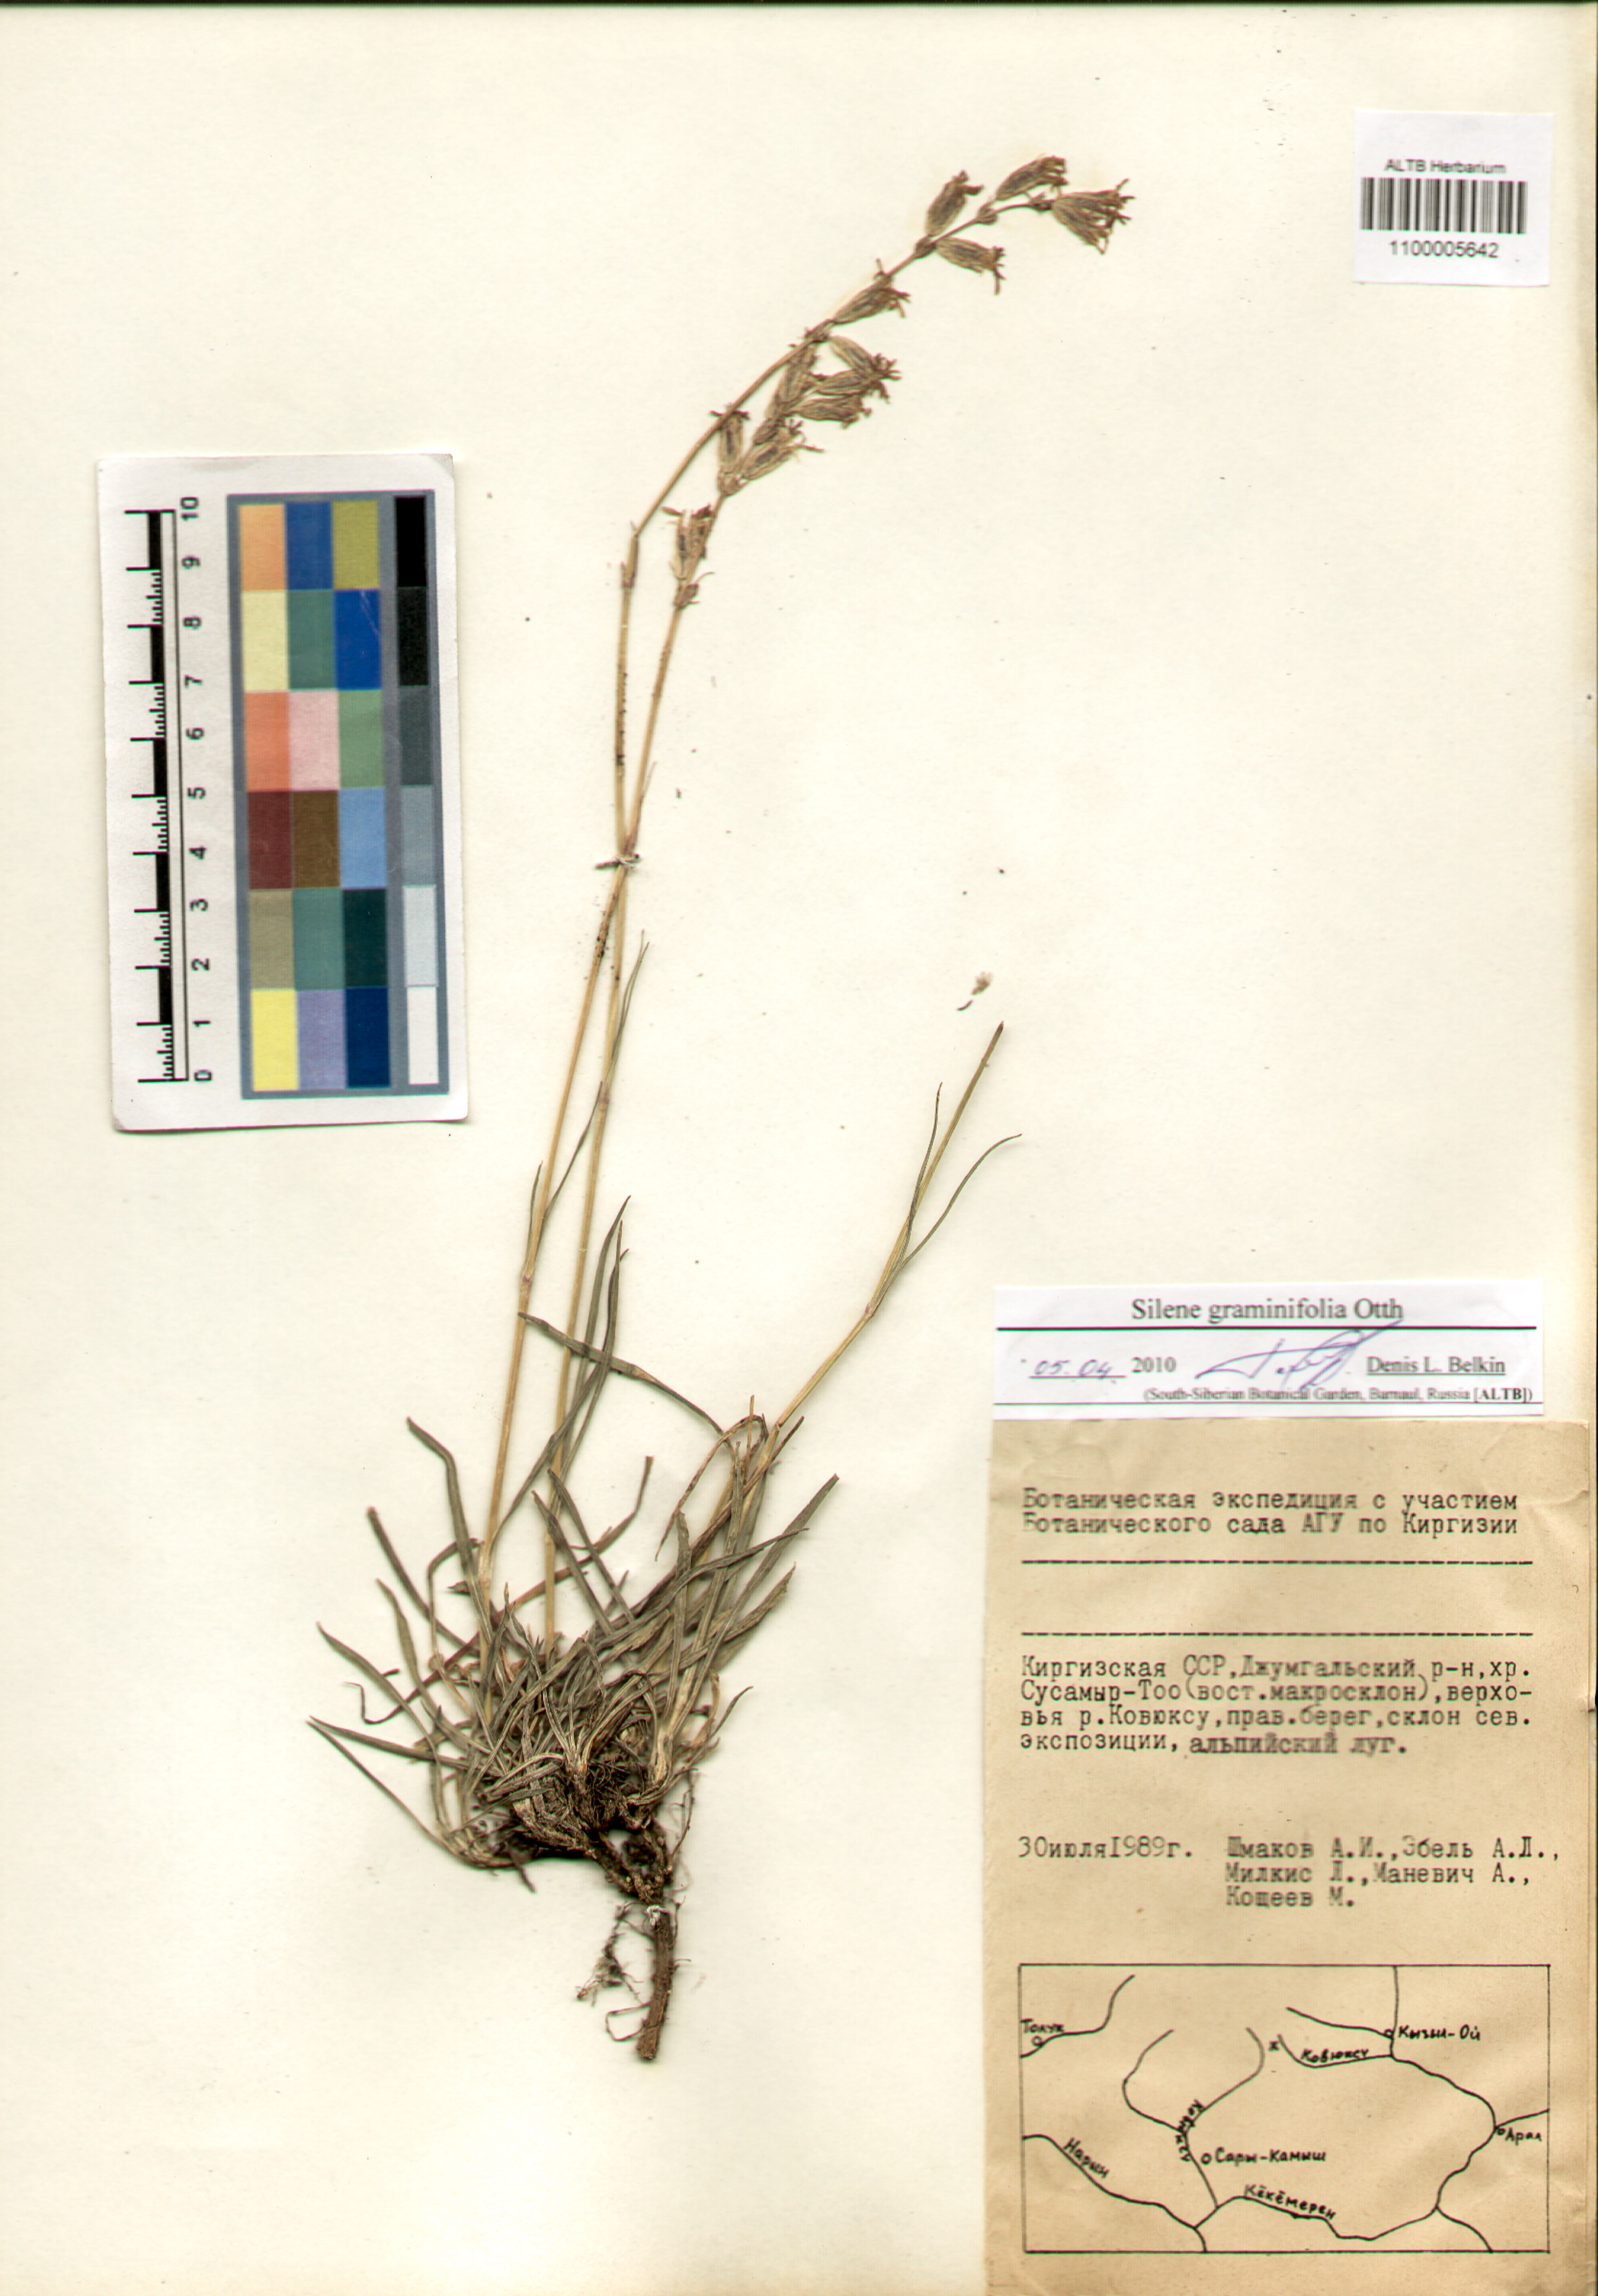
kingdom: Plantae
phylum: Tracheophyta
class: Magnoliopsida
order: Caryophyllales
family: Caryophyllaceae
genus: Silene
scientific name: Silene graminifolia
